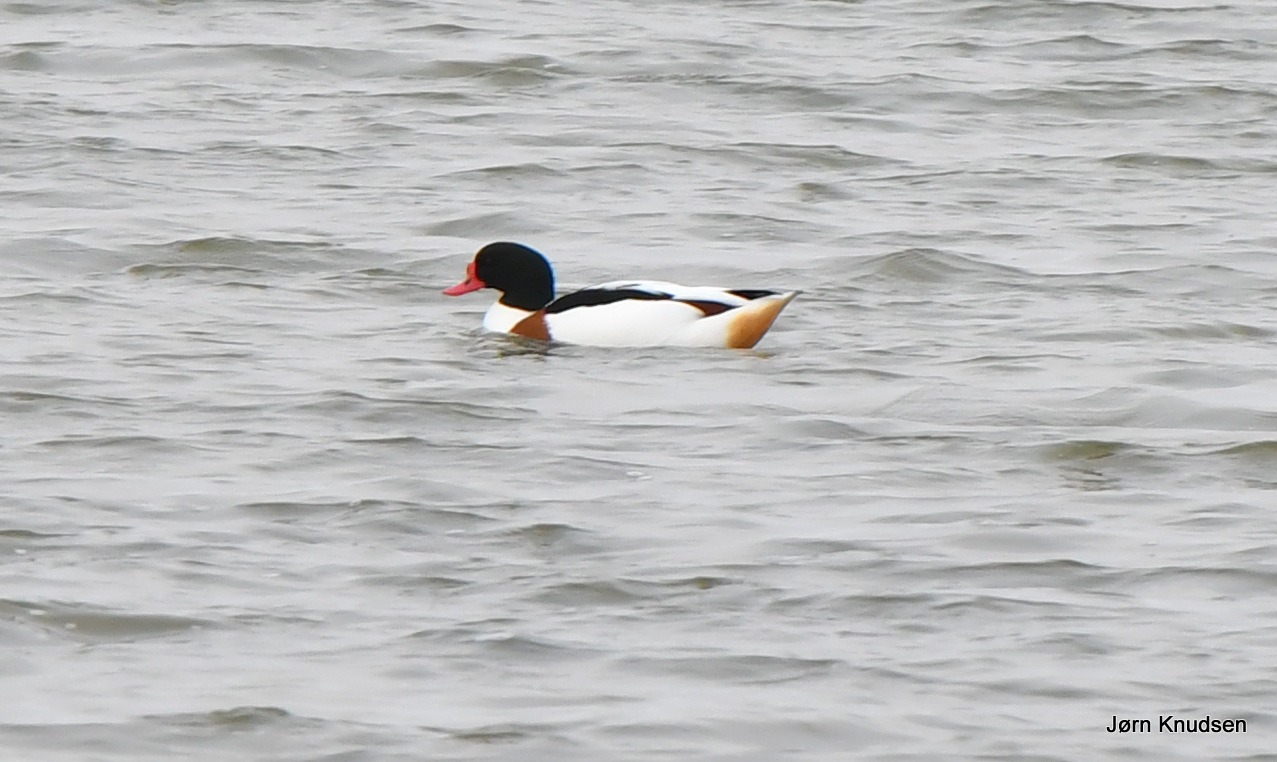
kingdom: Animalia
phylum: Chordata
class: Aves
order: Anseriformes
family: Anatidae
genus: Tadorna
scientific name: Tadorna tadorna
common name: Gravand
